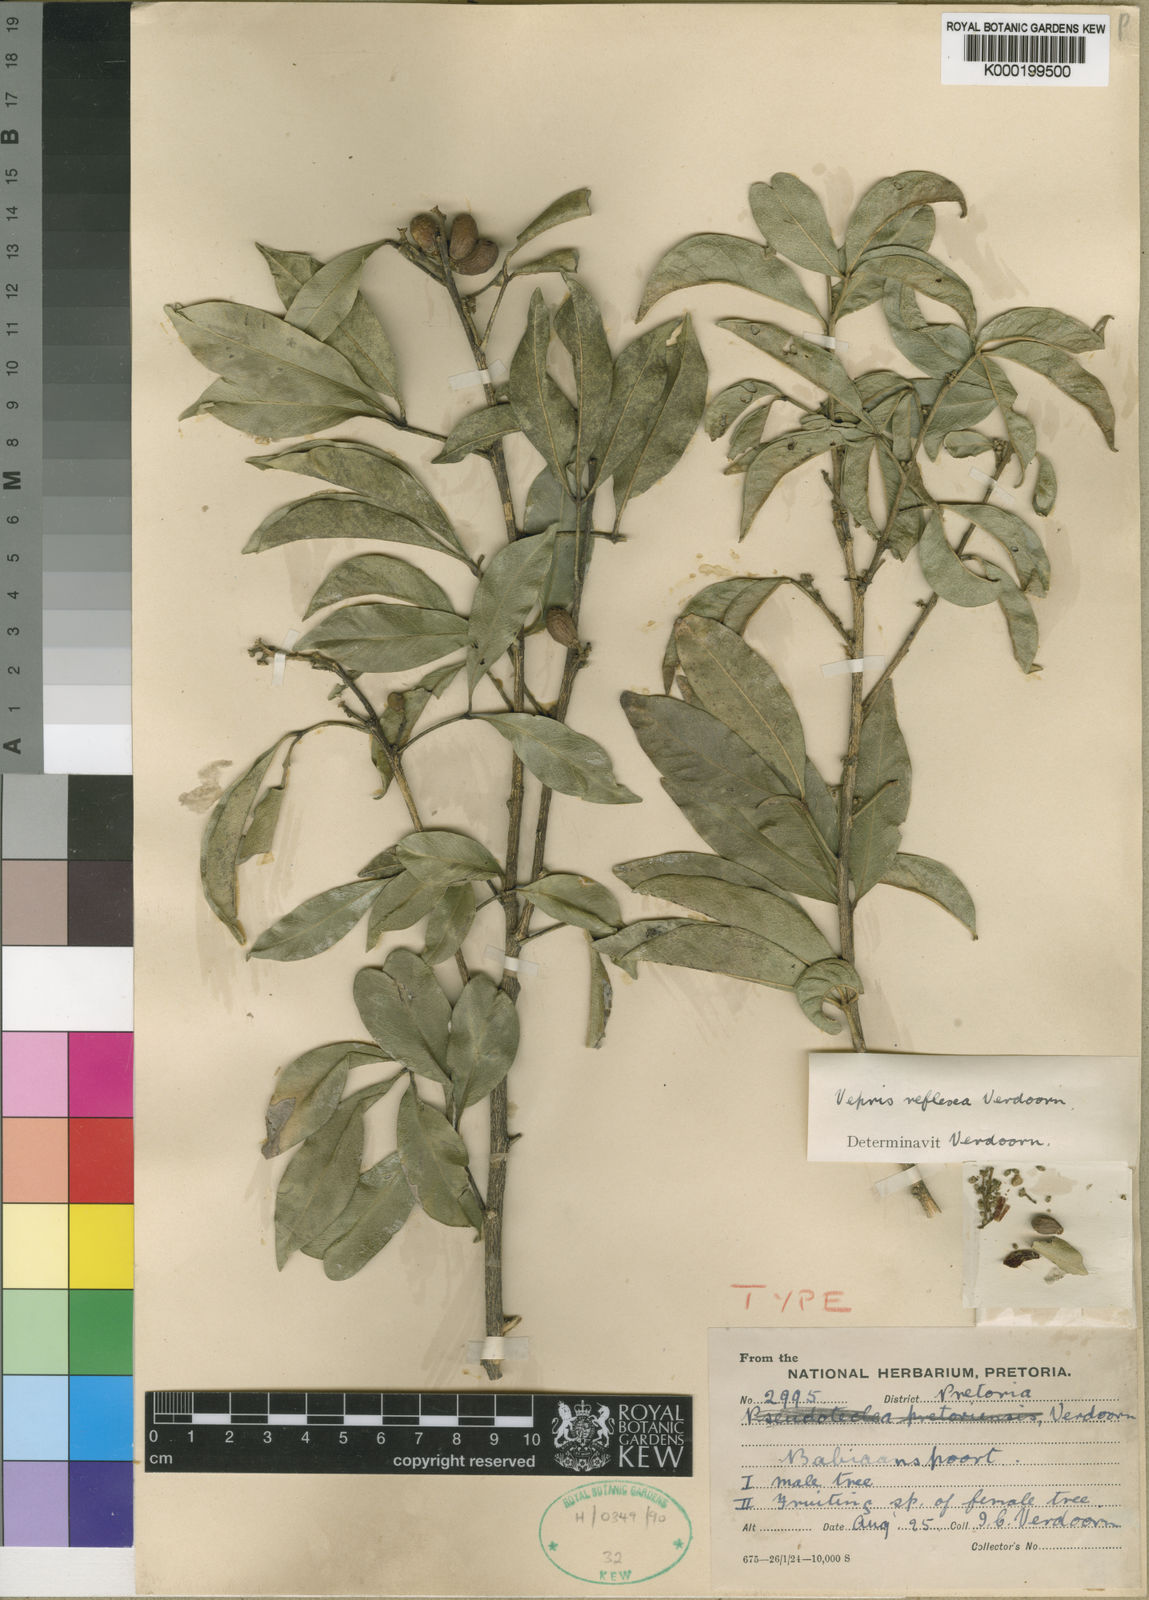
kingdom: Plantae
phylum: Tracheophyta
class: Magnoliopsida
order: Sapindales
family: Rutaceae
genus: Vepris
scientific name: Vepris reflexa
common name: Rock white ironwood
